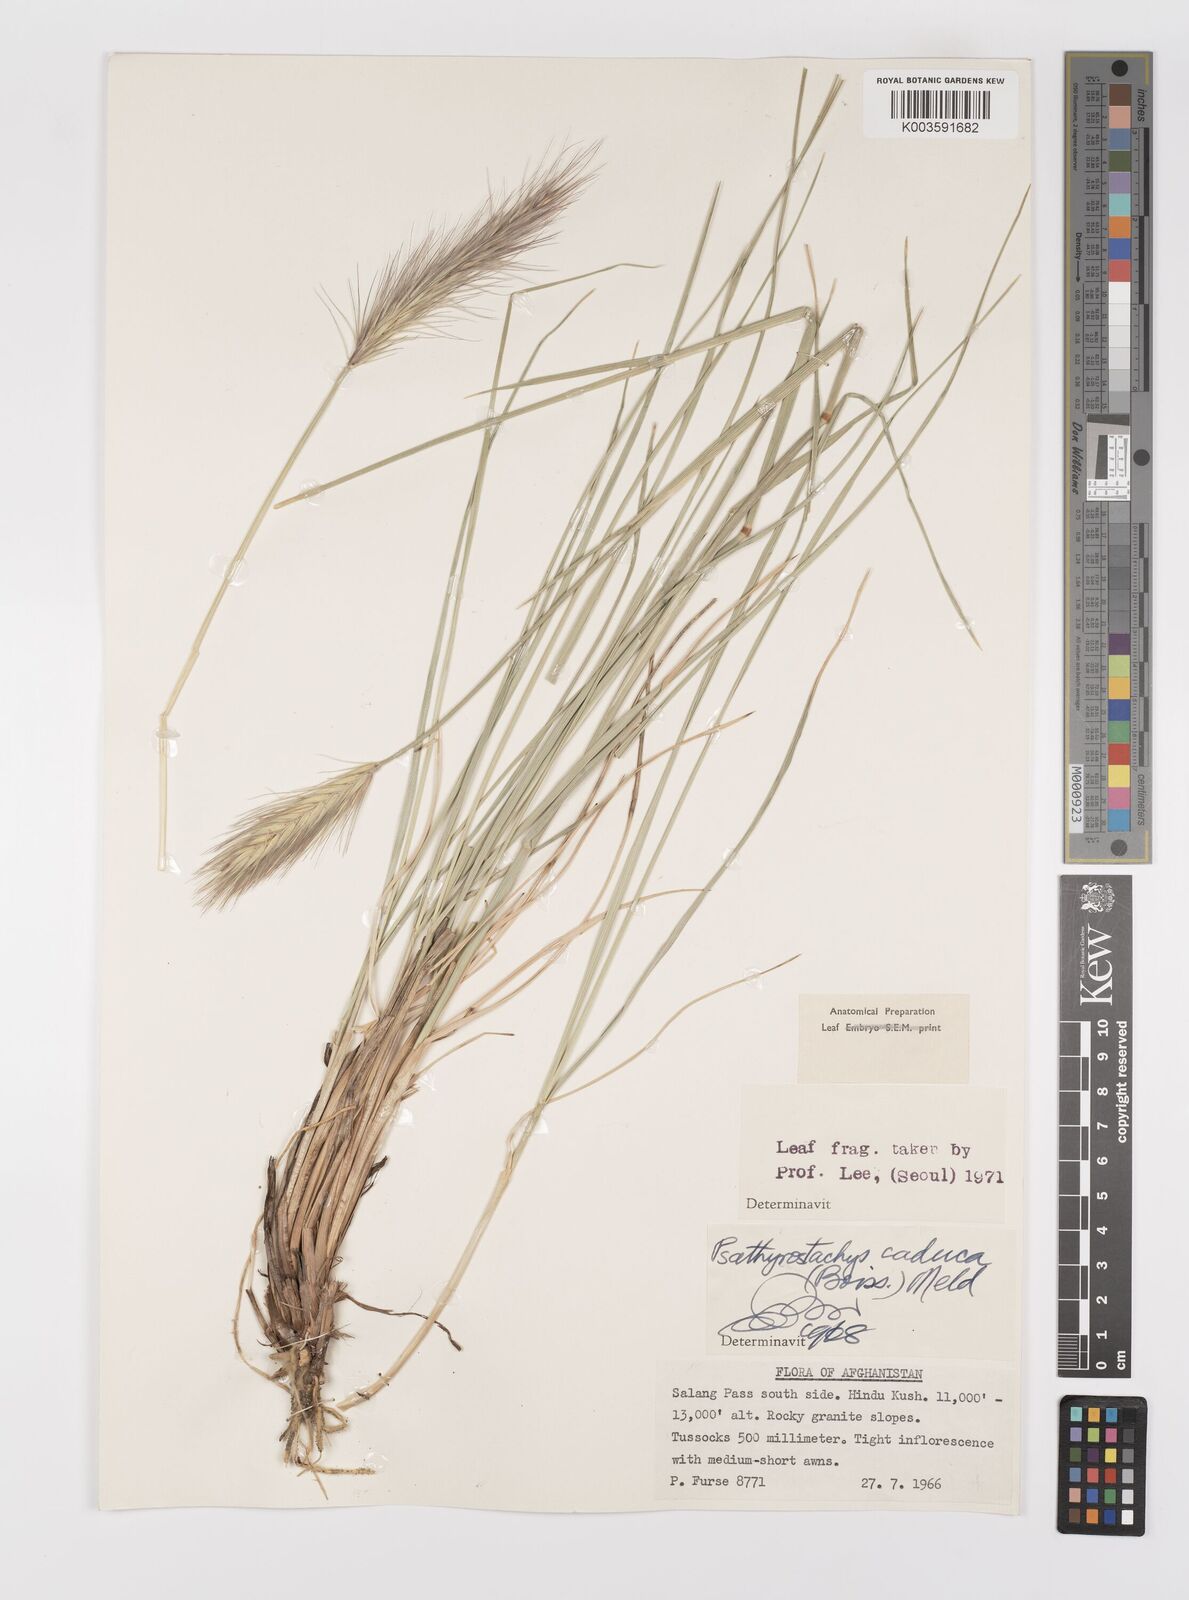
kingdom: Plantae
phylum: Tracheophyta
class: Liliopsida
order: Poales
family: Poaceae
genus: Psathyrostachys
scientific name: Psathyrostachys caduca
